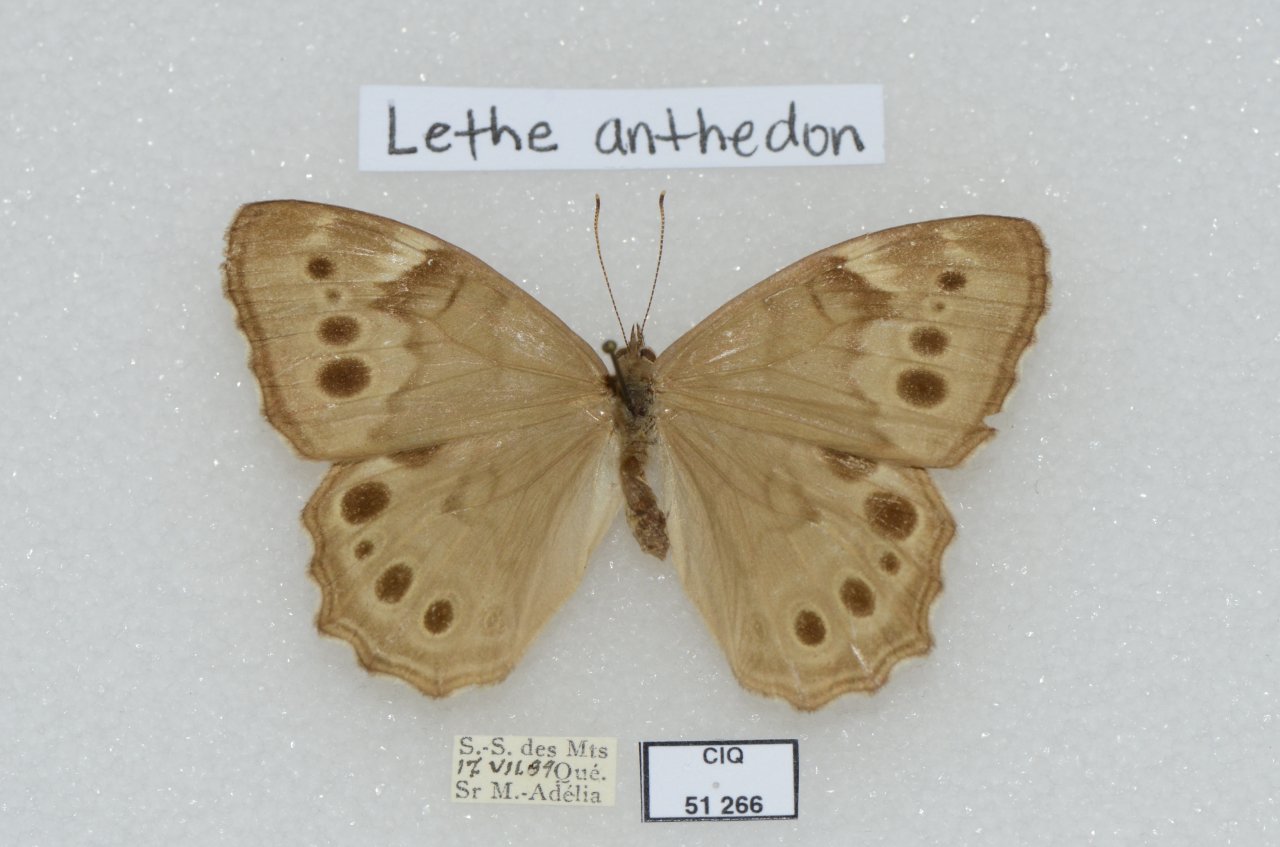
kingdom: Animalia
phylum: Arthropoda
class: Insecta
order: Lepidoptera
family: Nymphalidae
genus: Lethe
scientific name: Lethe anthedon
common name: Northern Pearly-Eye
